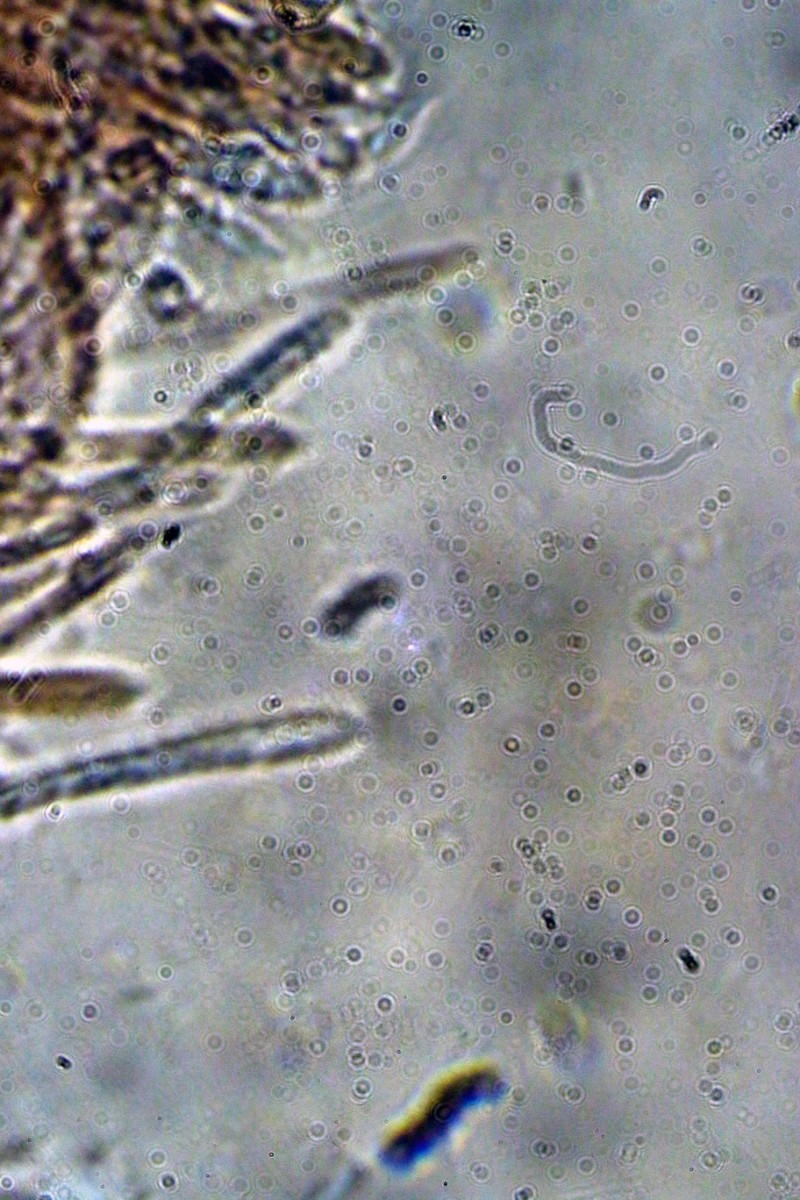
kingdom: Fungi
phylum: Ascomycota
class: Leotiomycetes
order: Helotiales
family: Lachnaceae
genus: Lachnum
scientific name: Lachnum impudicum
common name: vinter-frynseskive
